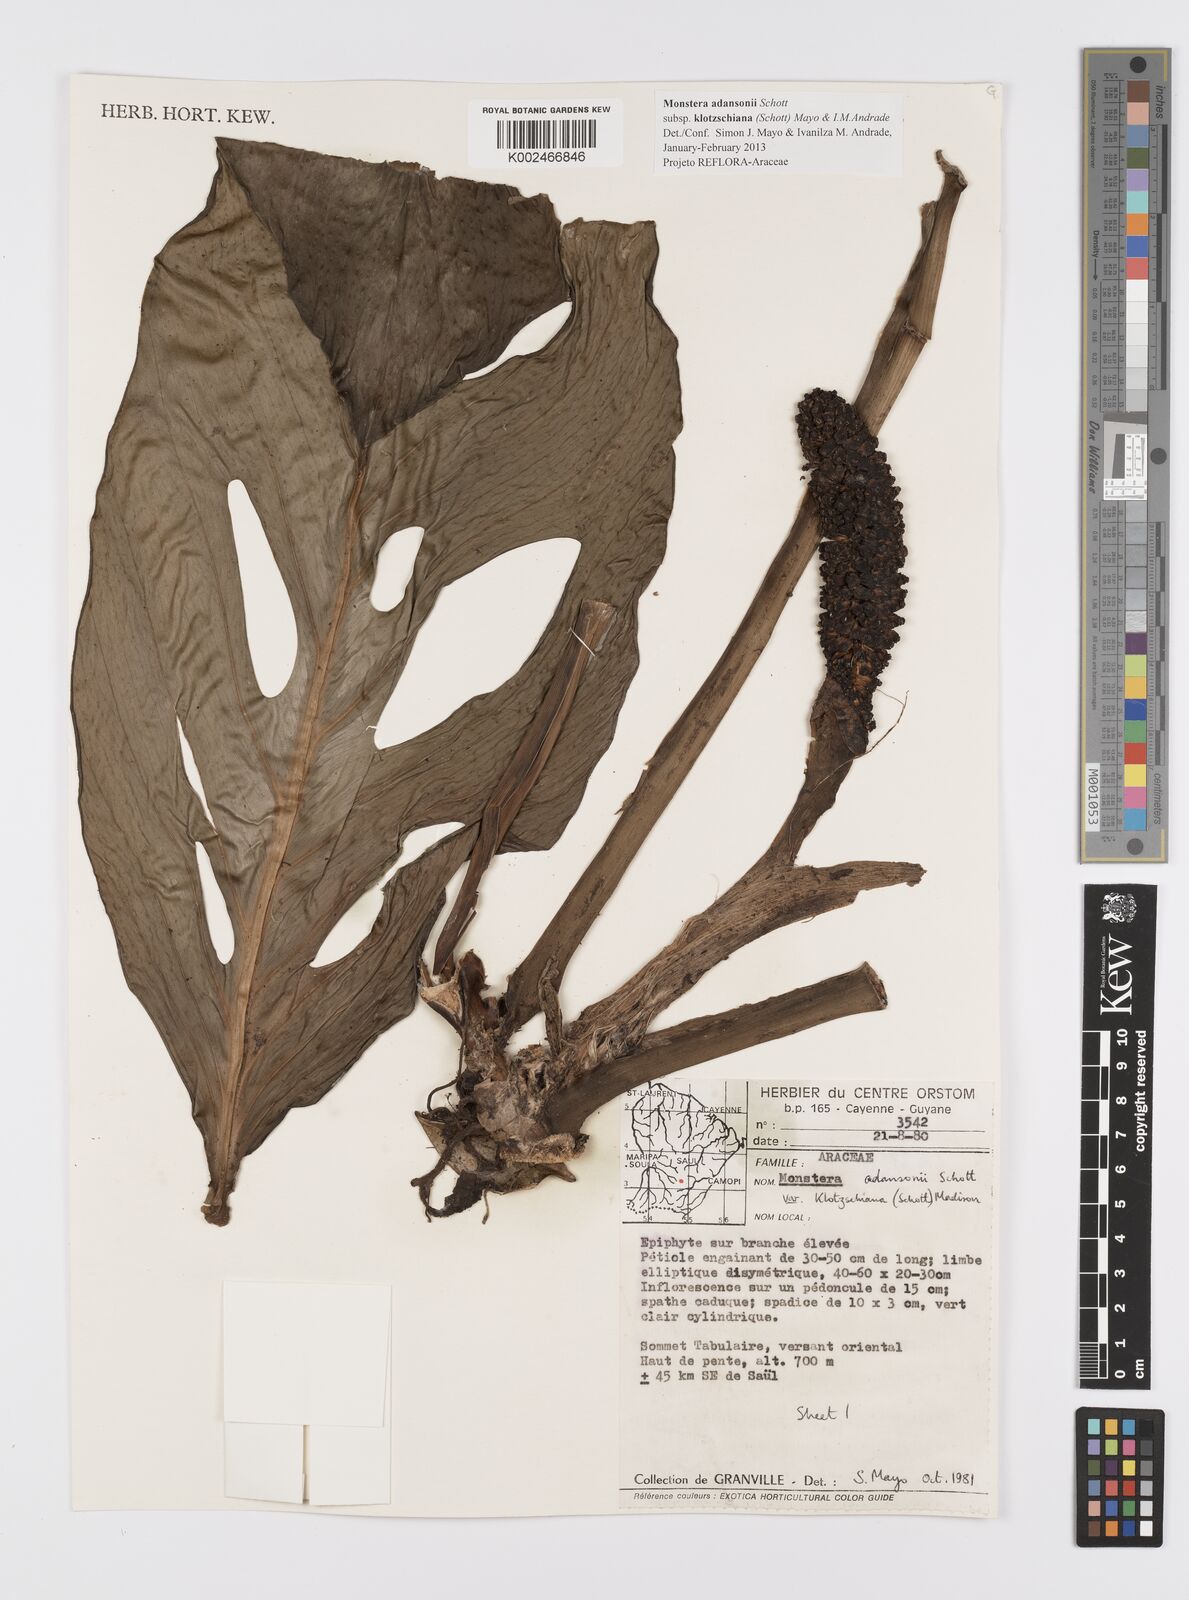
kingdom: Plantae
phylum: Tracheophyta
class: Liliopsida
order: Alismatales
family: Araceae
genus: Monstera
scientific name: Monstera adansonii
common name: Tarovine
